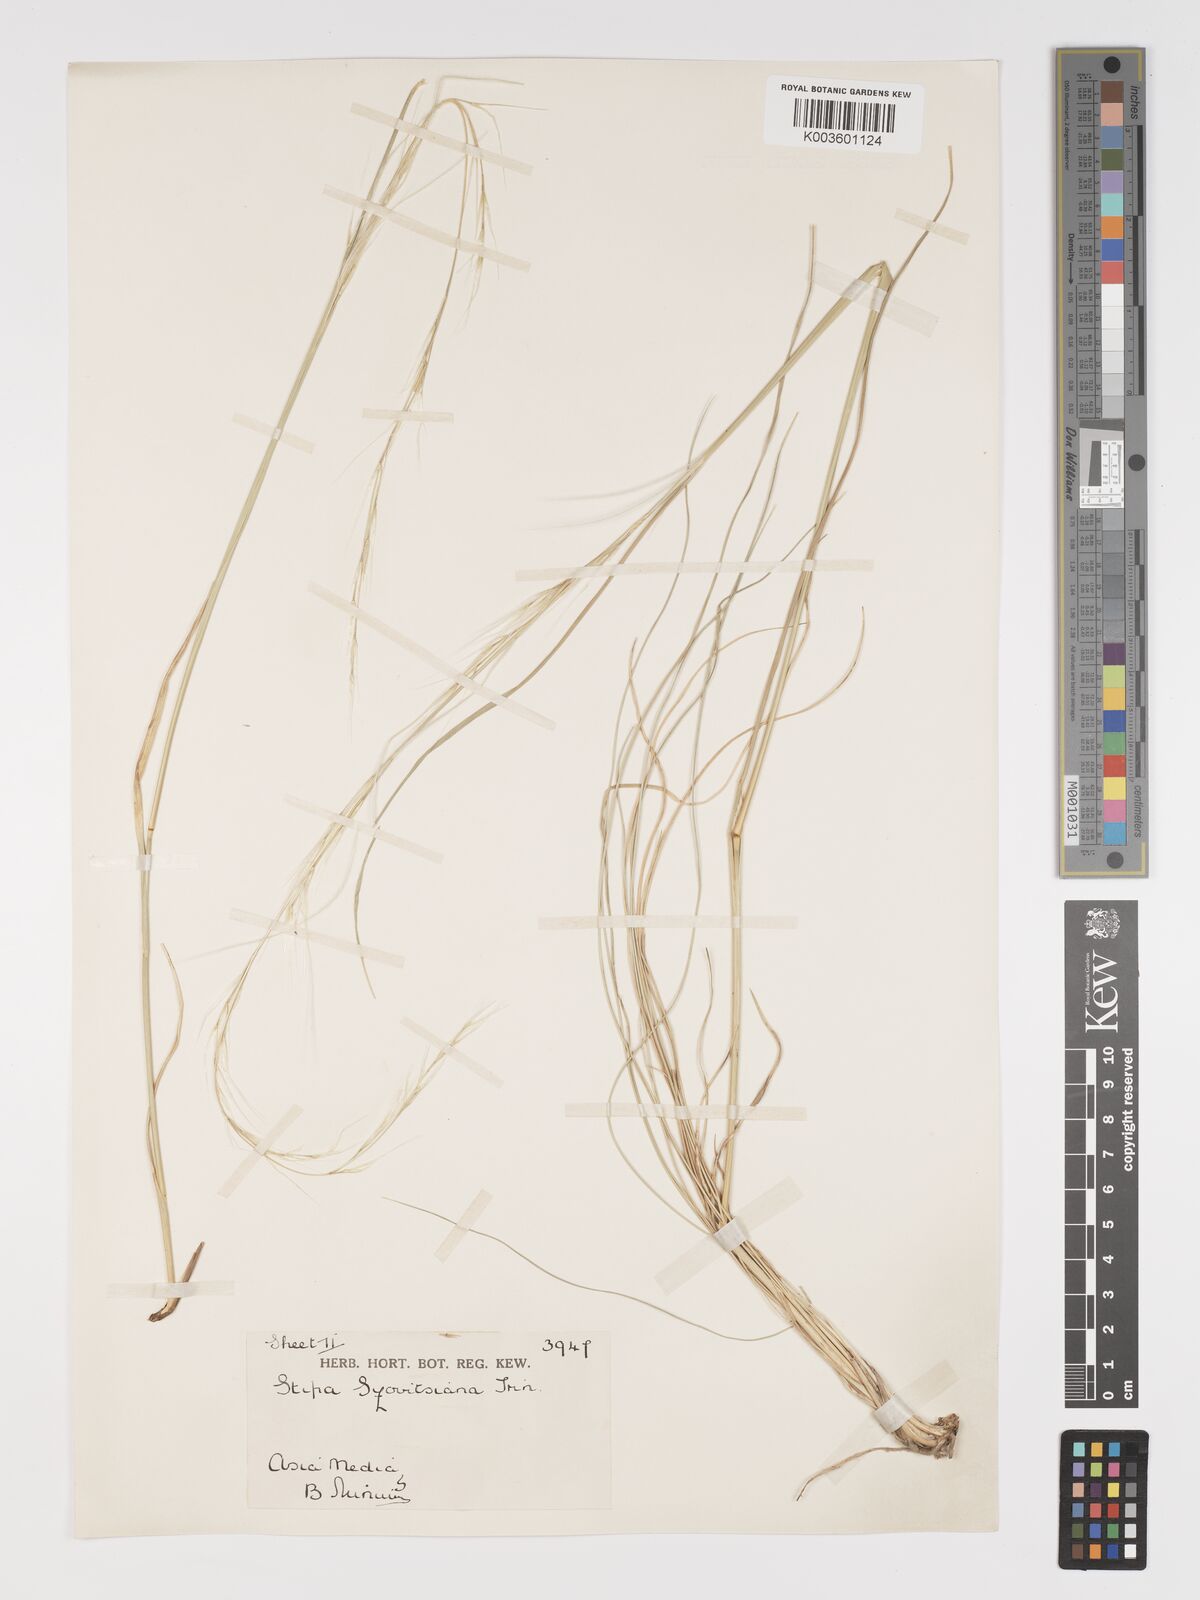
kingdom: Plantae
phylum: Tracheophyta
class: Liliopsida
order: Poales
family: Poaceae
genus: Stipa
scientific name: Stipa arabica
